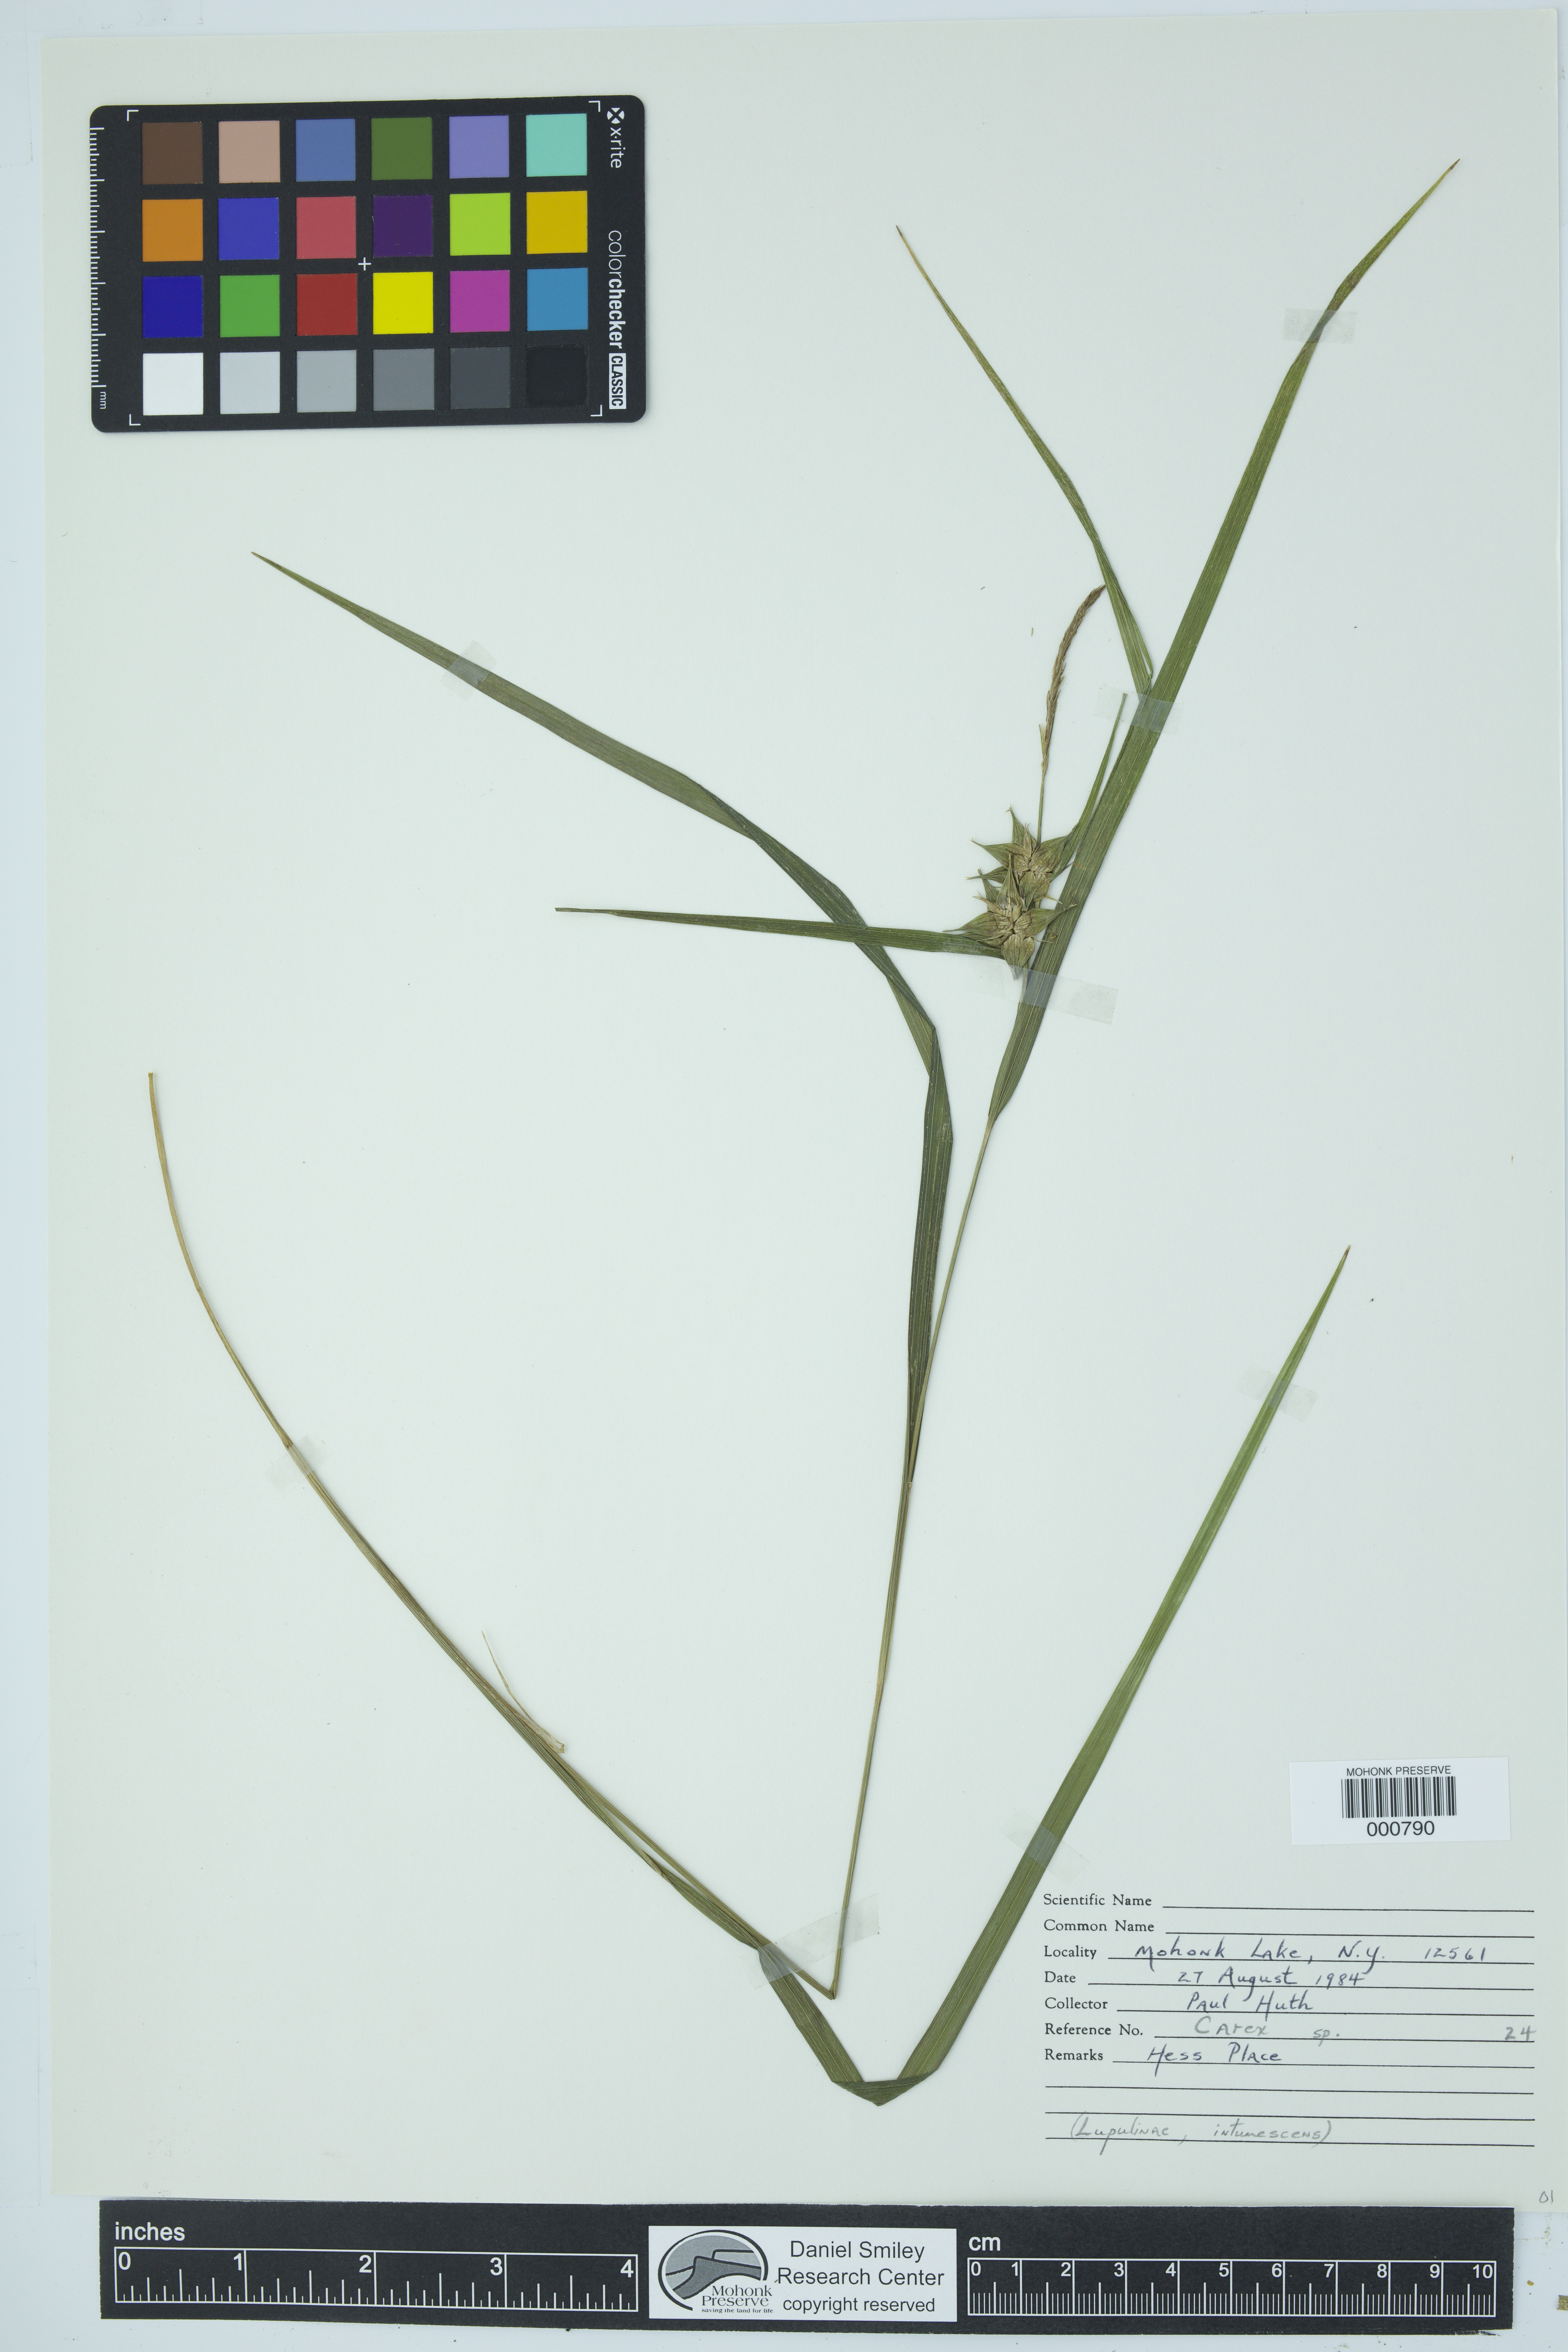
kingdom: Plantae
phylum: Tracheophyta
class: Liliopsida
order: Poales
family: Cyperaceae
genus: Carex
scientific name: Carex intumescens
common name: Greater bladder sedge
